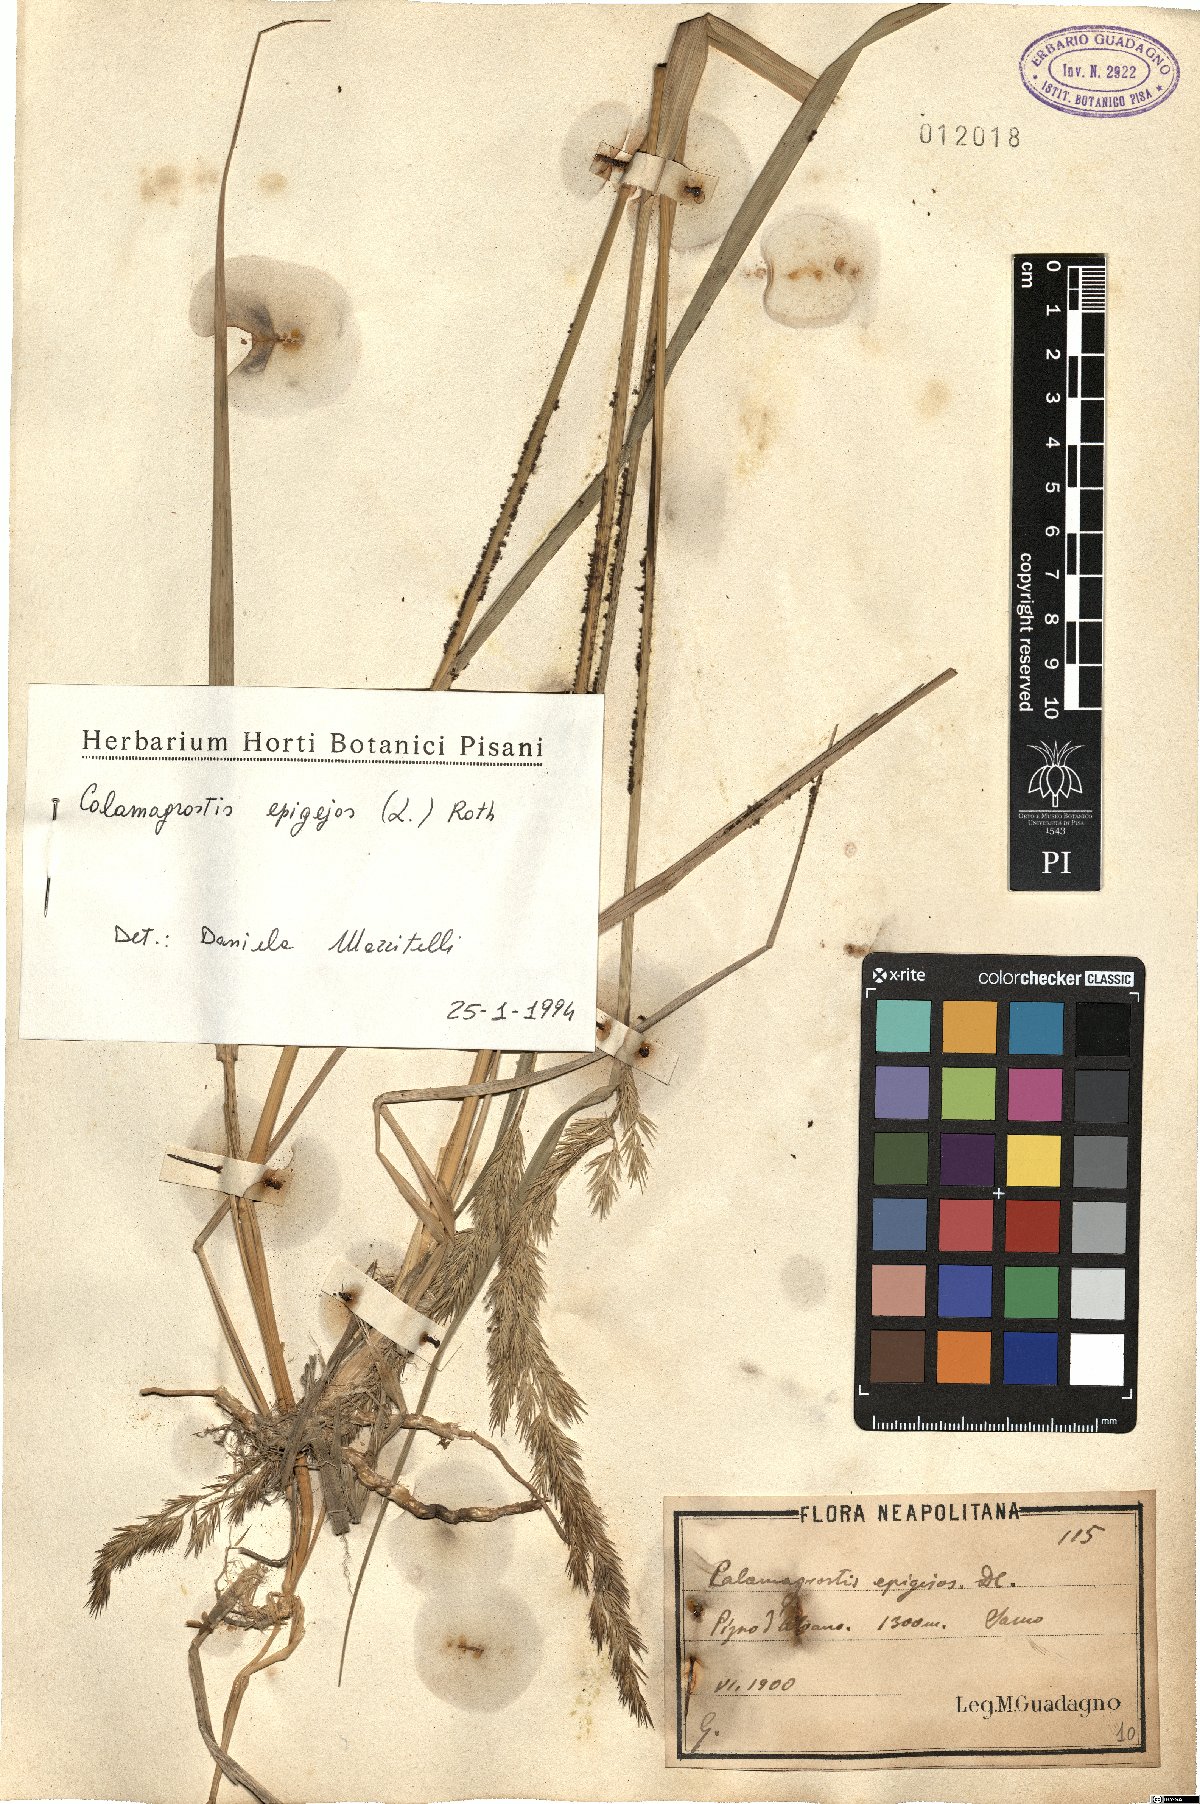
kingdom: Plantae
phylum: Tracheophyta
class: Liliopsida
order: Poales
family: Poaceae
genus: Calamagrostis
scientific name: Calamagrostis epigejos
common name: Wood small-reed
